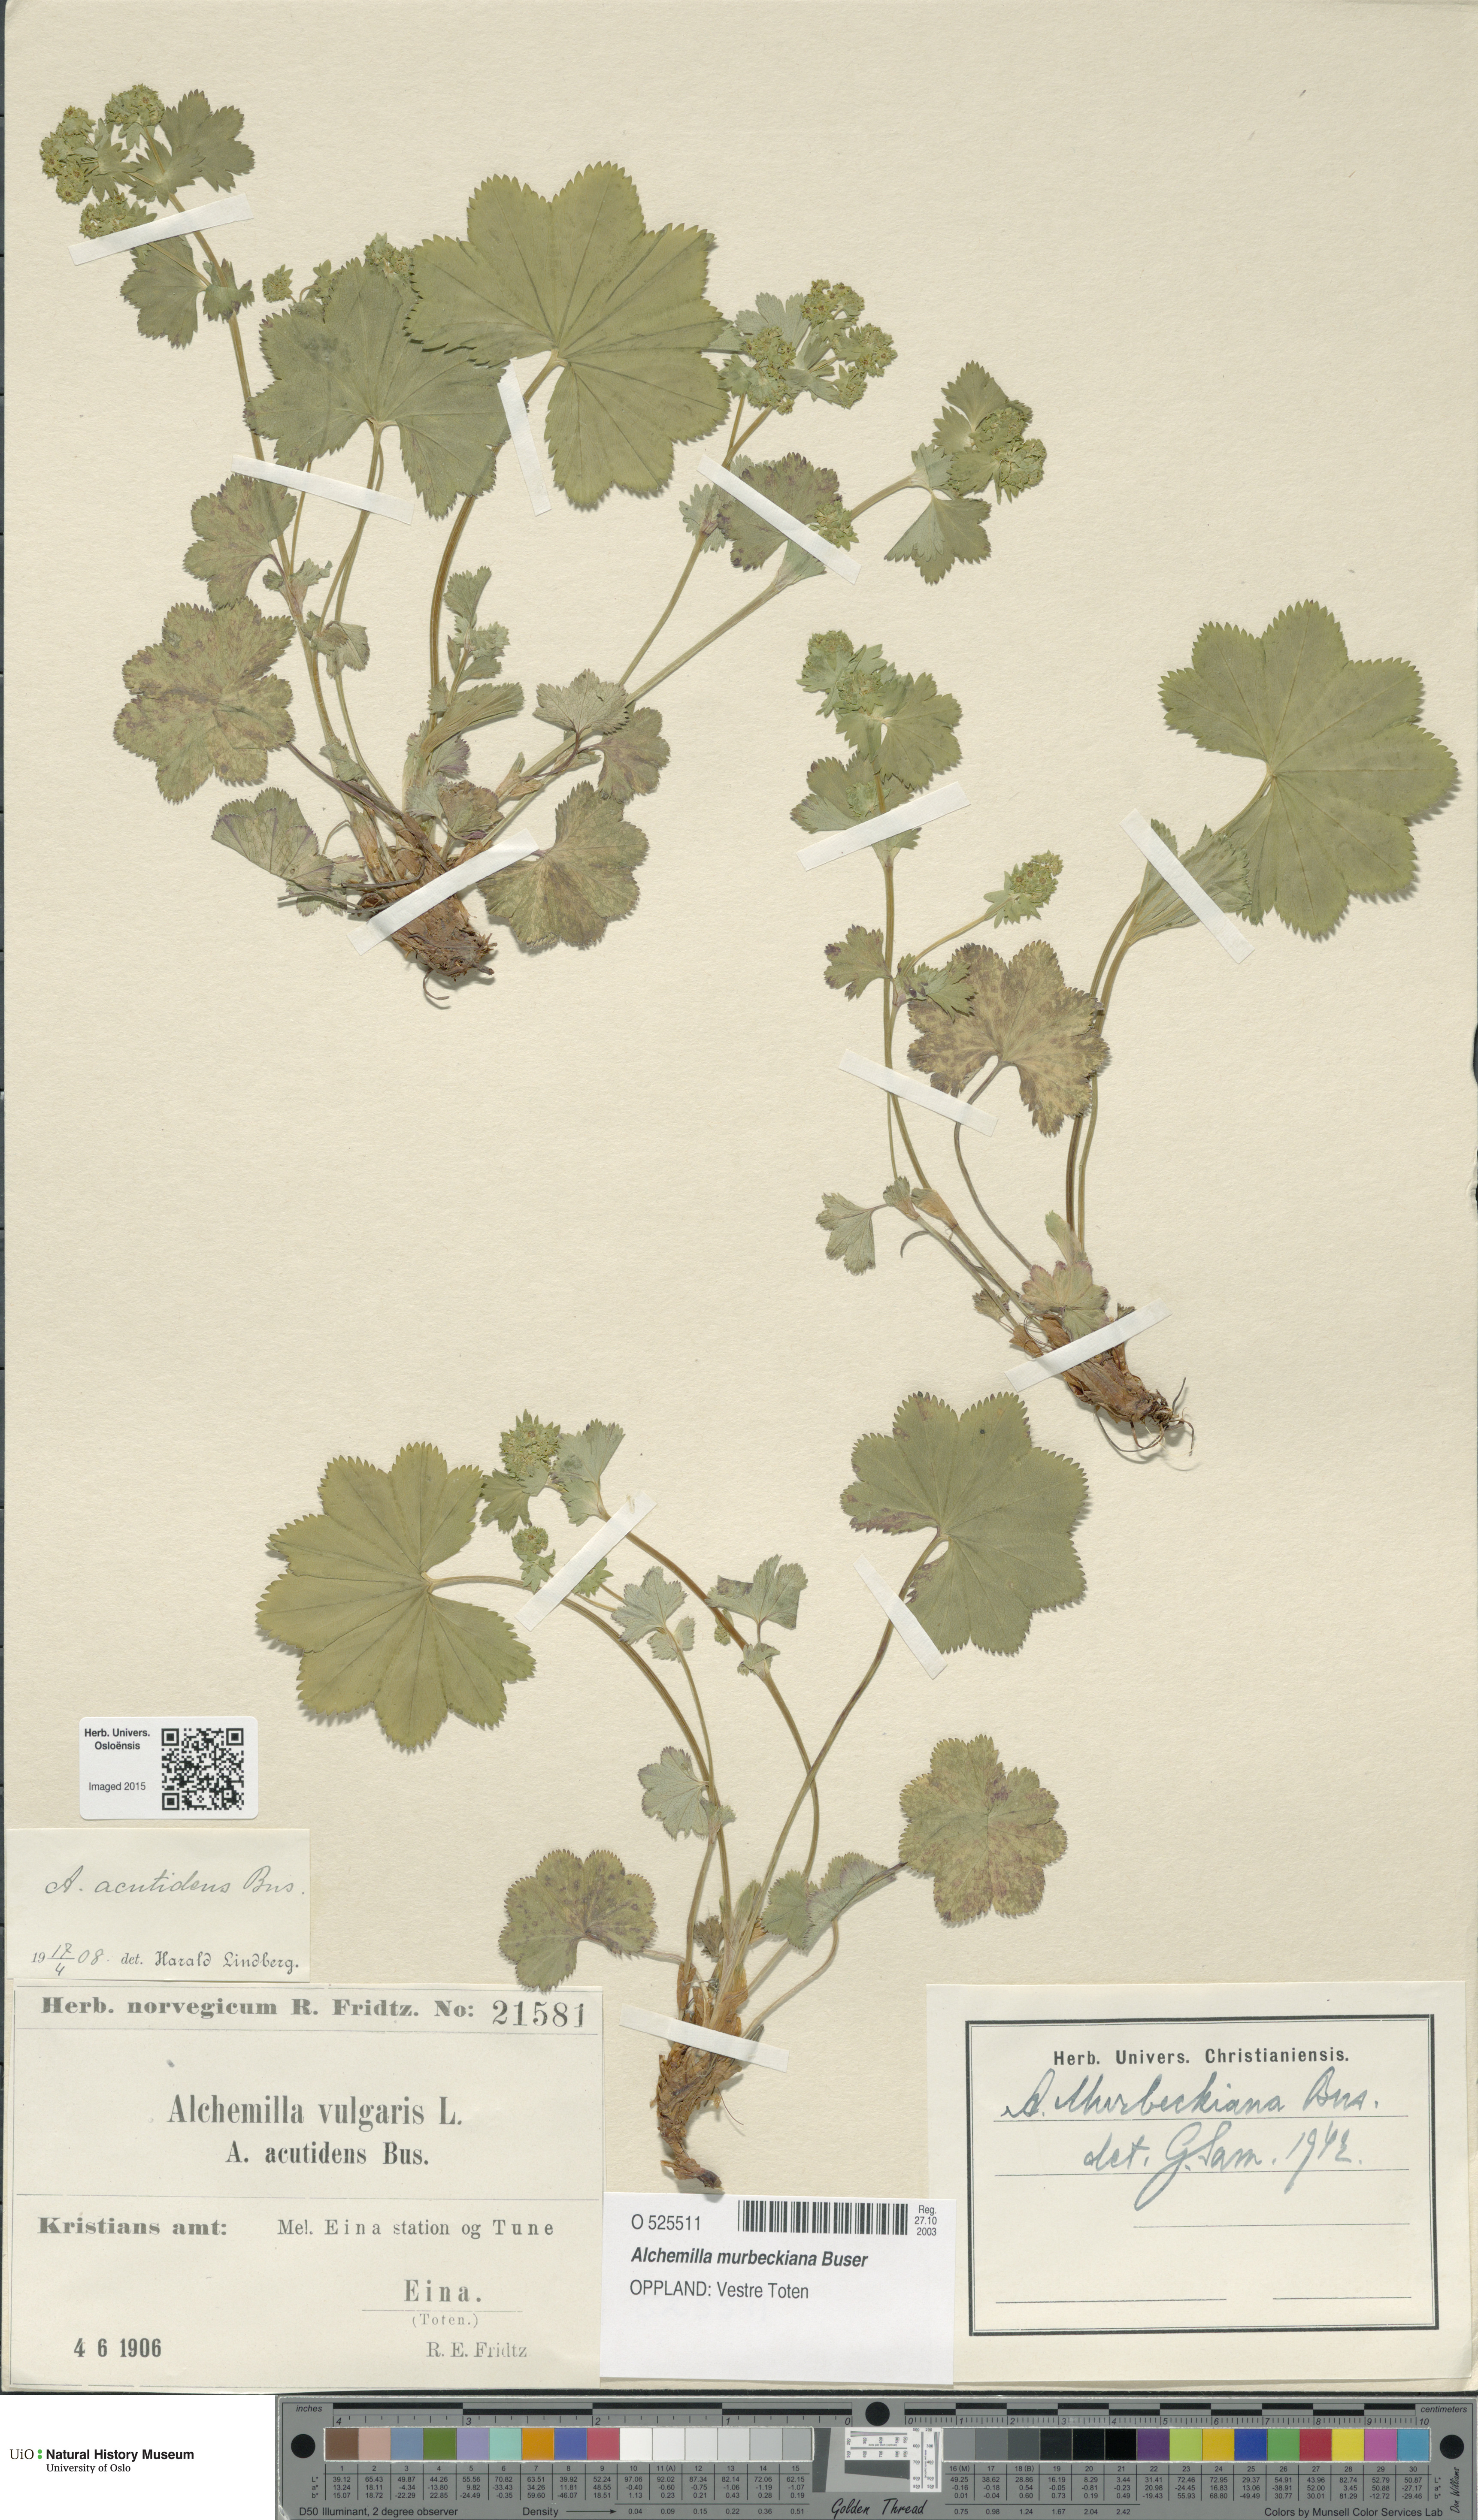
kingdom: Plantae
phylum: Tracheophyta
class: Magnoliopsida
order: Rosales
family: Rosaceae
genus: Alchemilla
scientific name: Alchemilla murbeckiana
